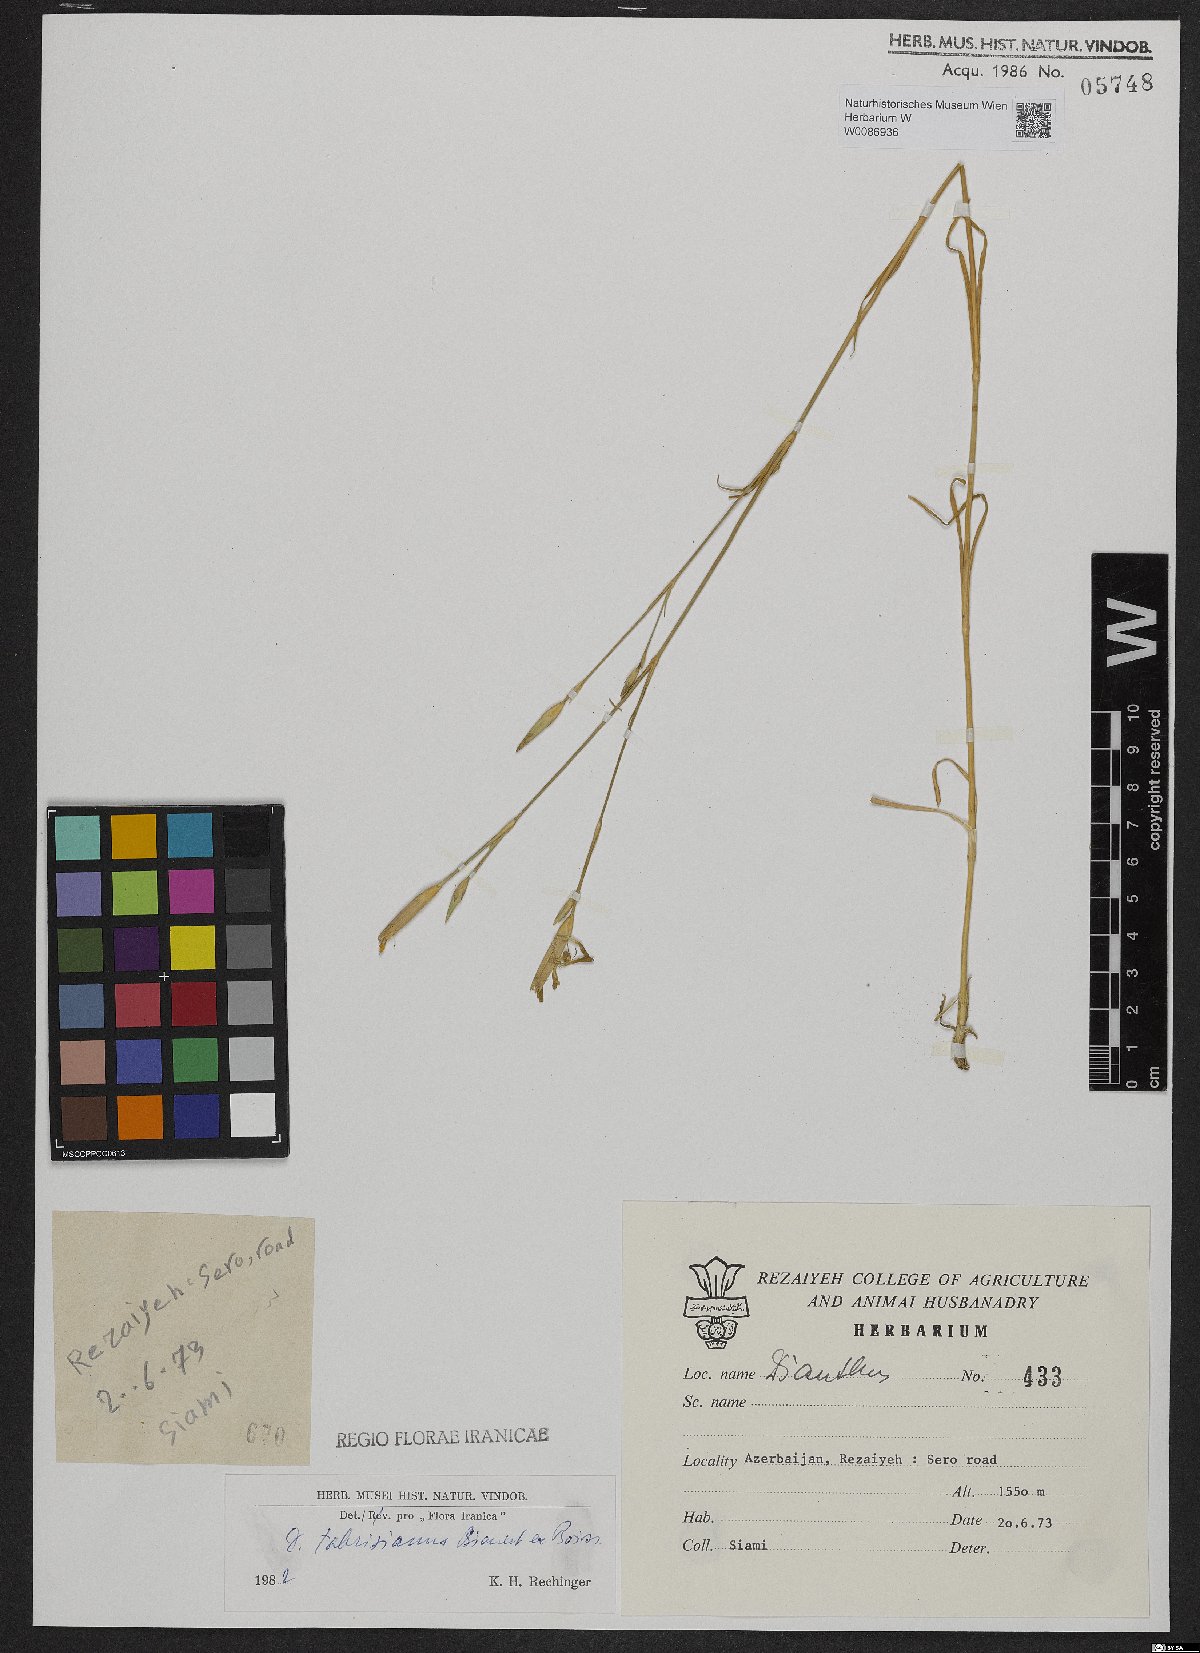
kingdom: Plantae
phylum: Tracheophyta
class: Magnoliopsida
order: Caryophyllales
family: Caryophyllaceae
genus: Dianthus
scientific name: Dianthus tabrisianus
